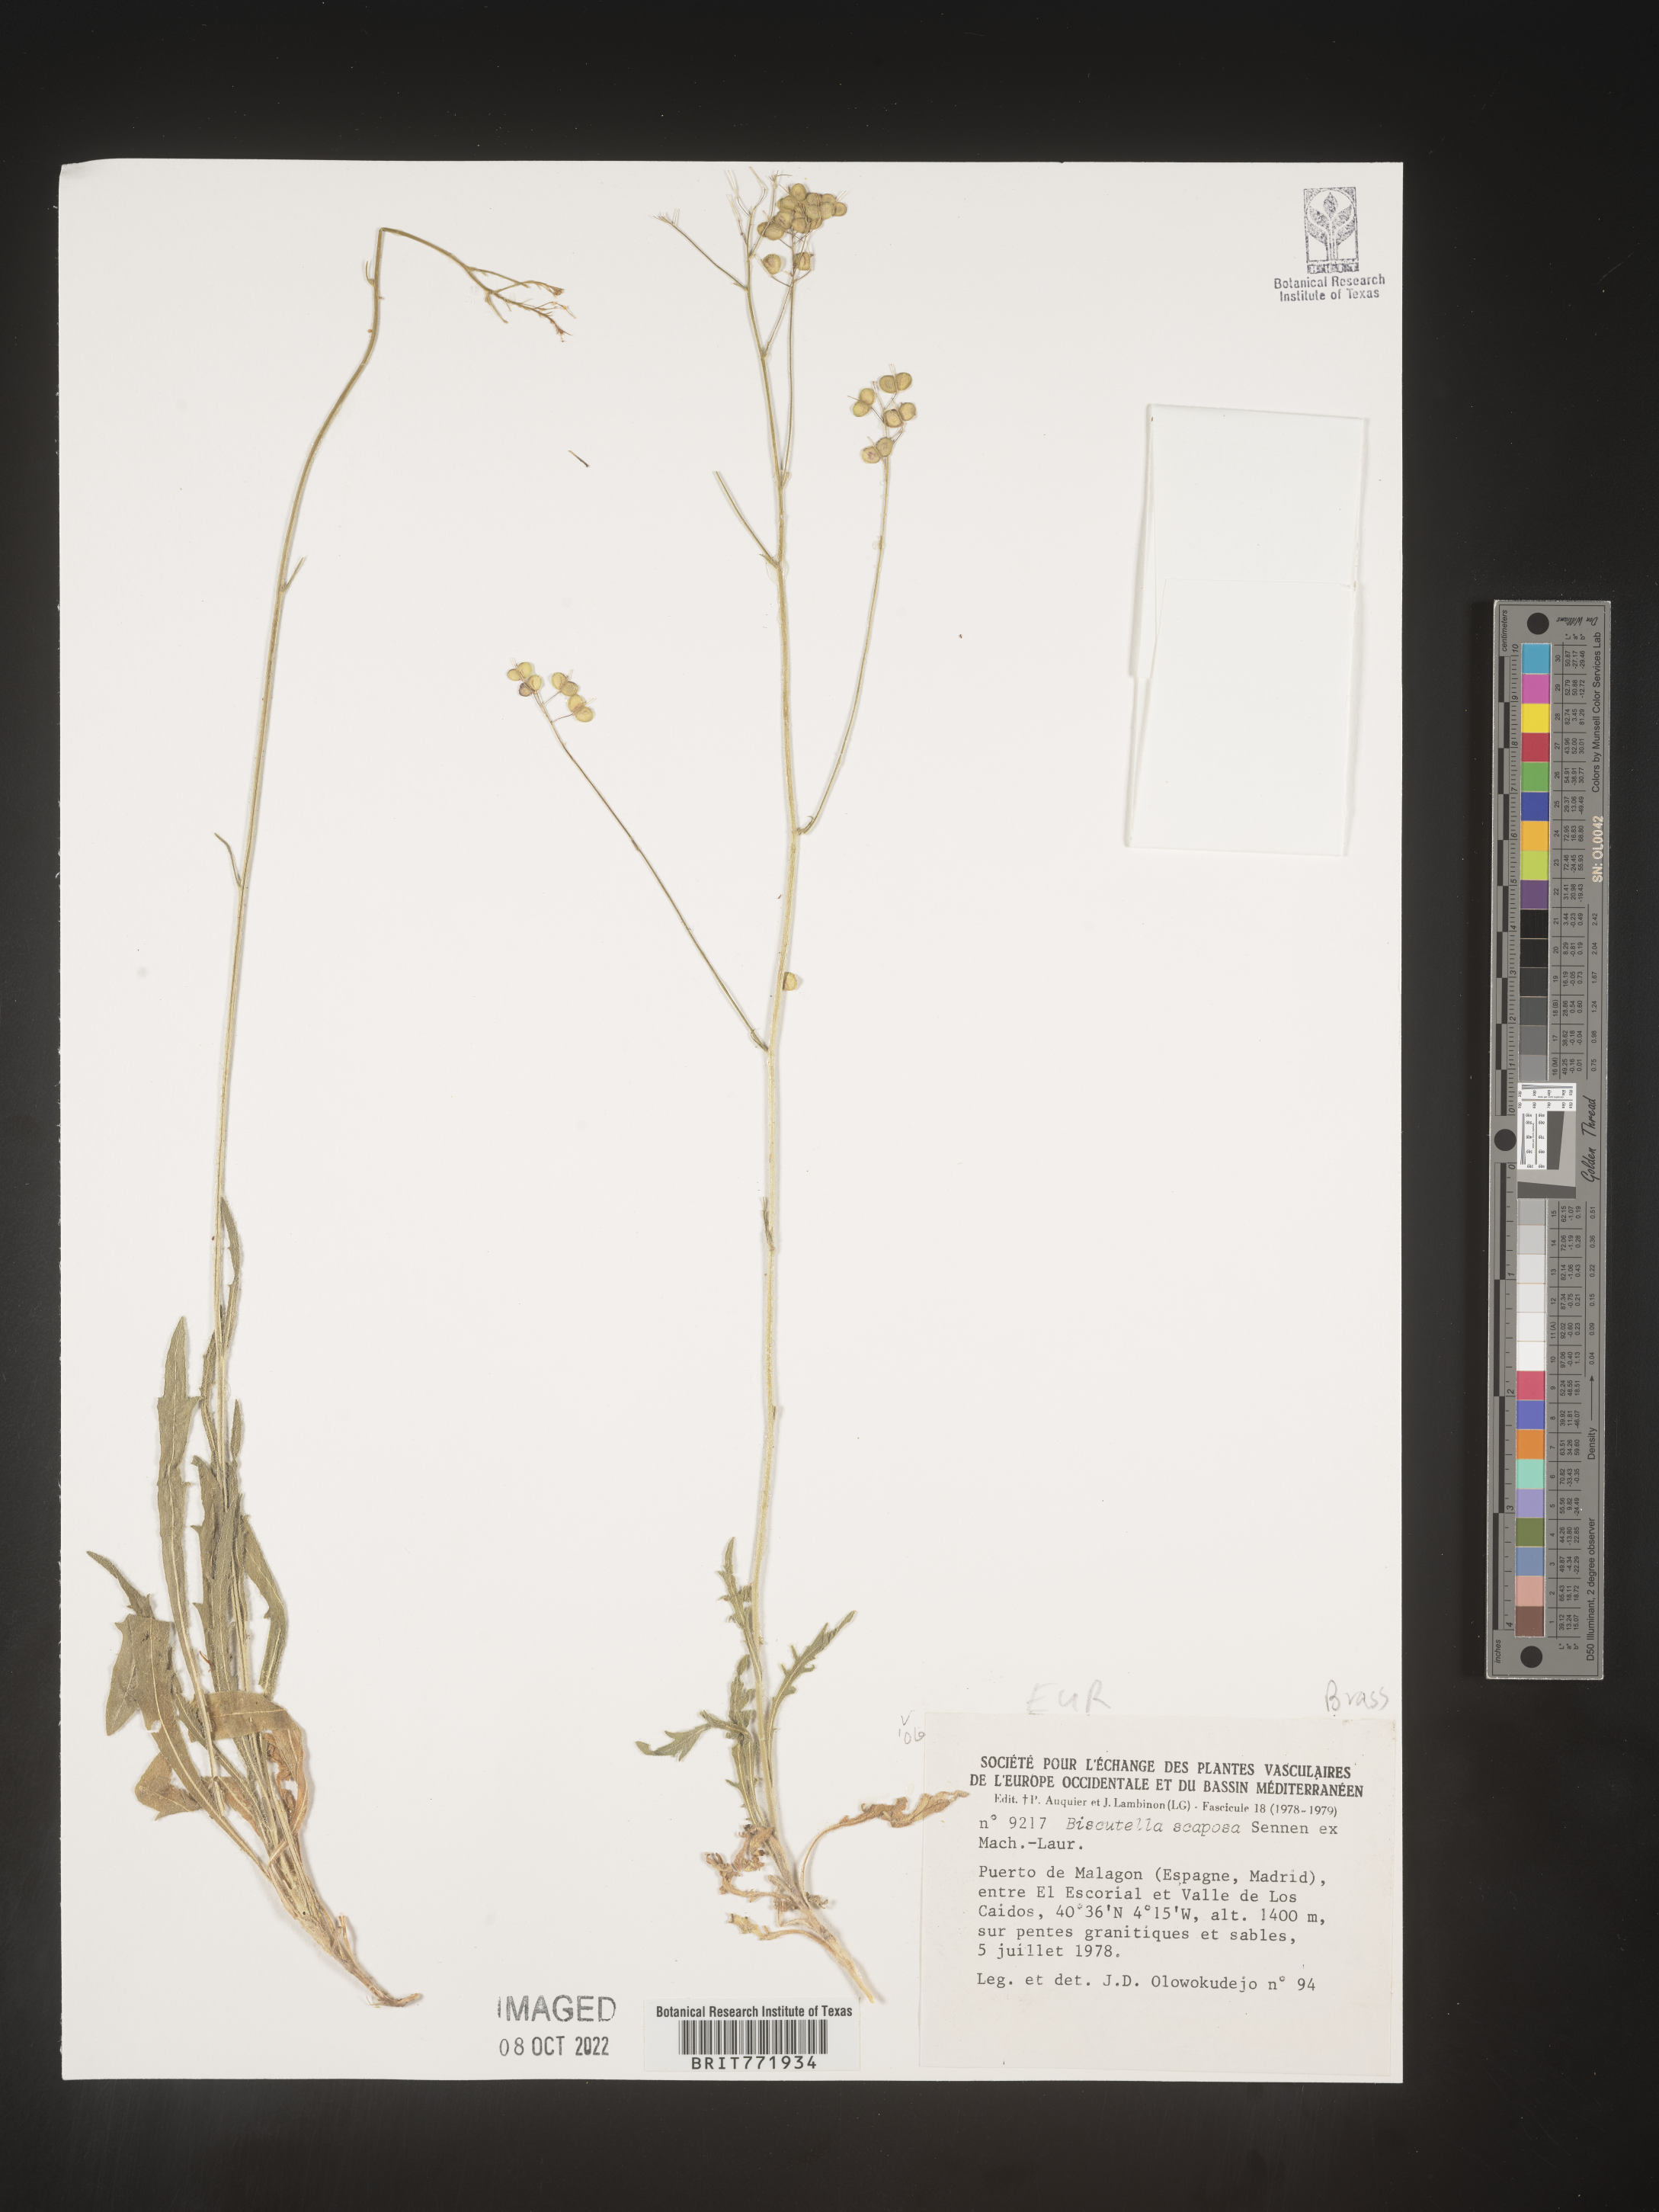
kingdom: Plantae
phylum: Tracheophyta
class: Magnoliopsida
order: Brassicales
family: Brassicaceae
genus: Biscutella
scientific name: Biscutella
